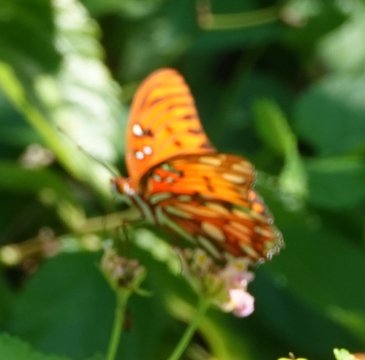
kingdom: Animalia
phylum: Arthropoda
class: Insecta
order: Lepidoptera
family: Nymphalidae
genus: Dione
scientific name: Dione vanillae
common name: Gulf Fritillary
